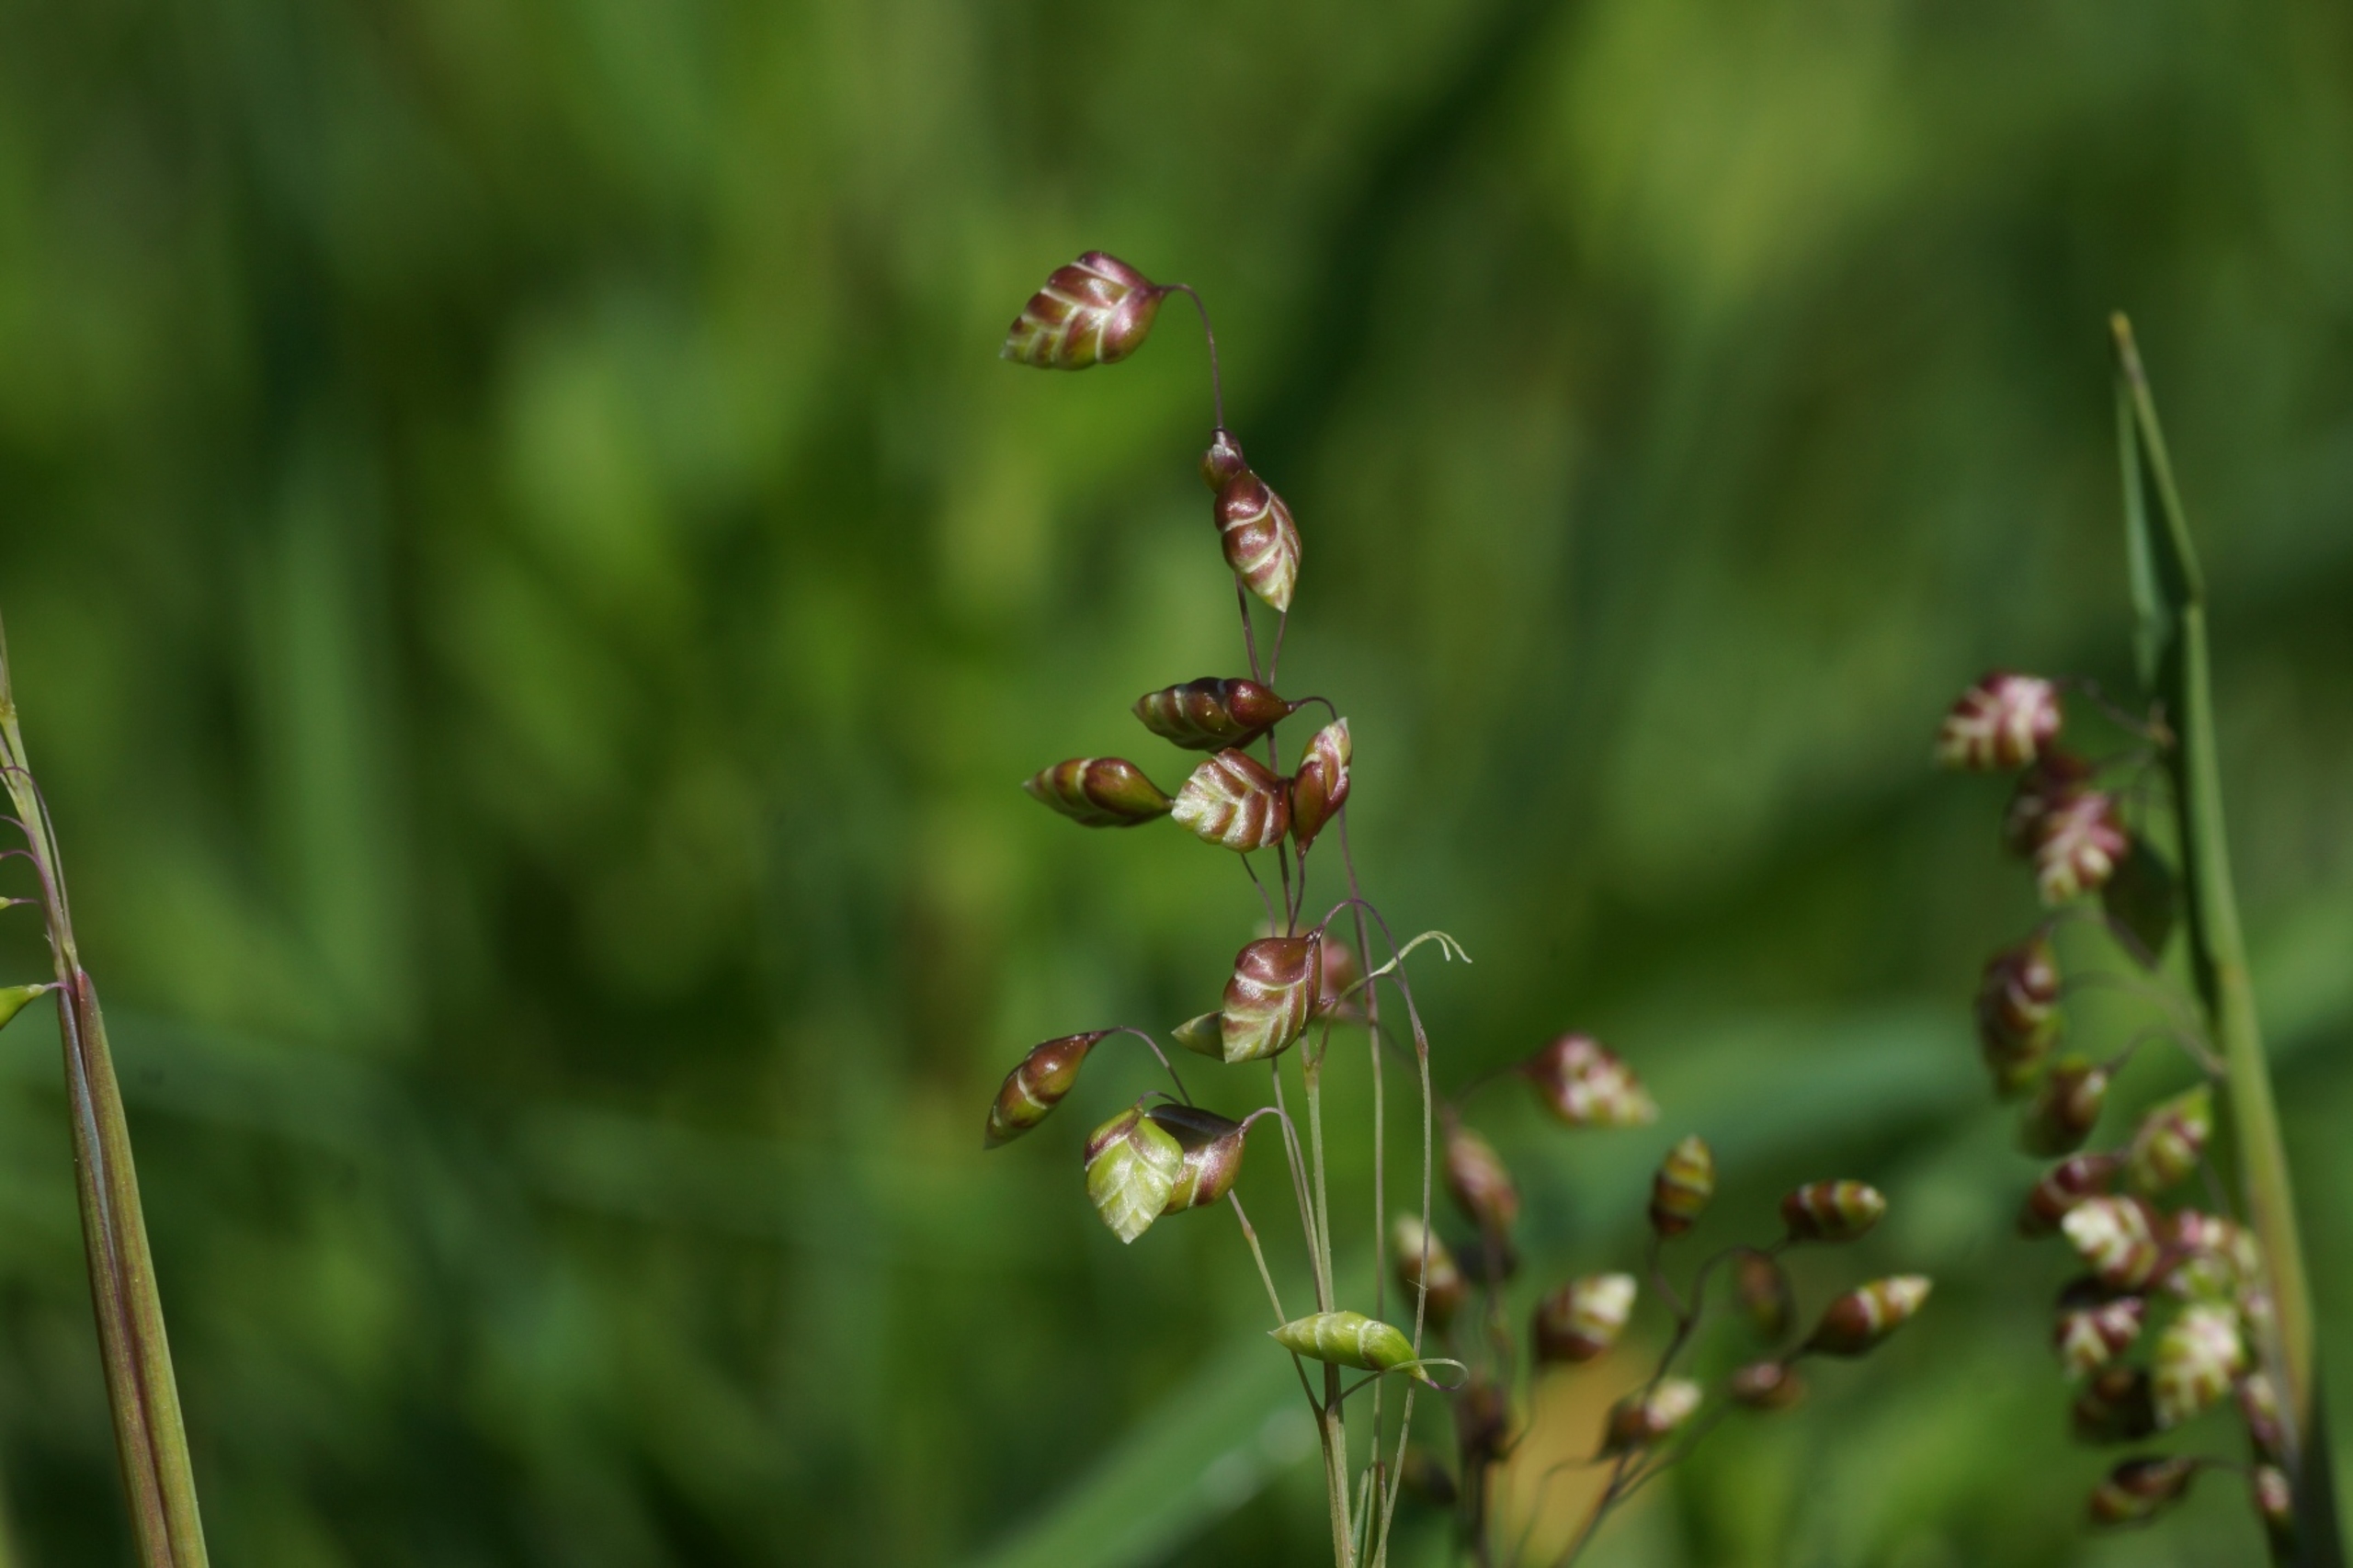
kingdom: Plantae
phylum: Tracheophyta
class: Liliopsida
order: Poales
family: Poaceae
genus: Briza
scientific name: Briza media
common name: Hjertegræs
